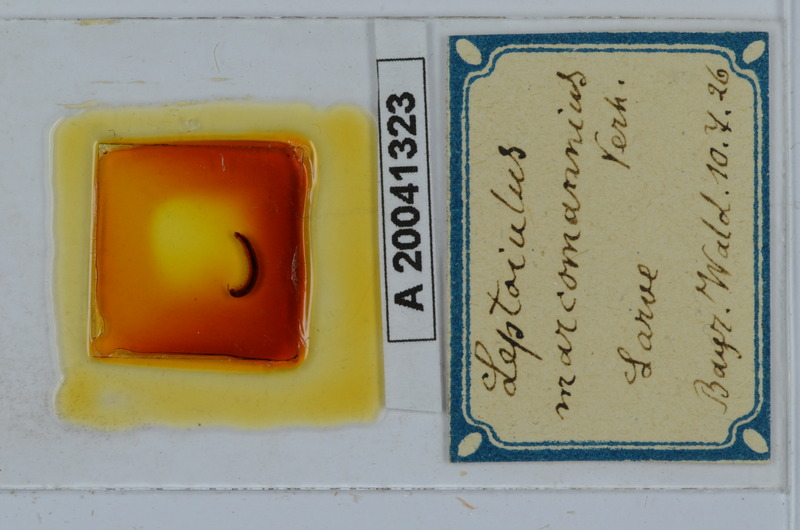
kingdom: Animalia
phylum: Arthropoda
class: Diplopoda
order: Julida
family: Julidae
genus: Leptoiulus
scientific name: Leptoiulus noricus
